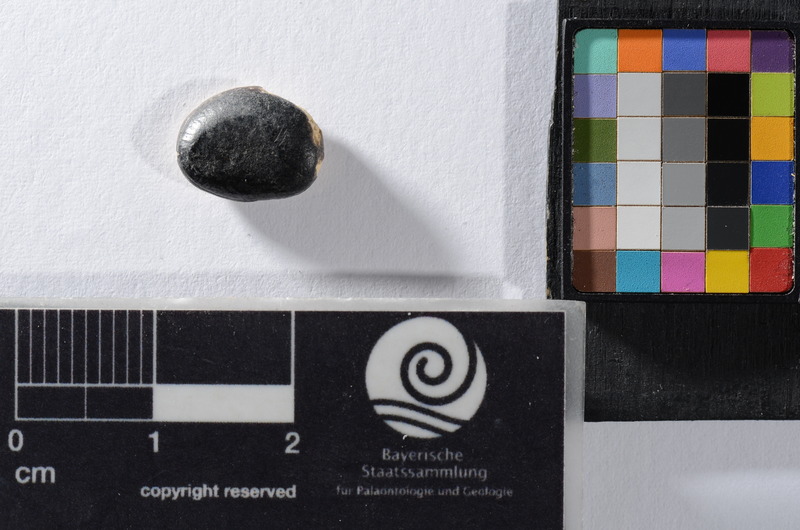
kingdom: Animalia
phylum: Chordata
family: Pycnodontidae
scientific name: Pycnodontidae
